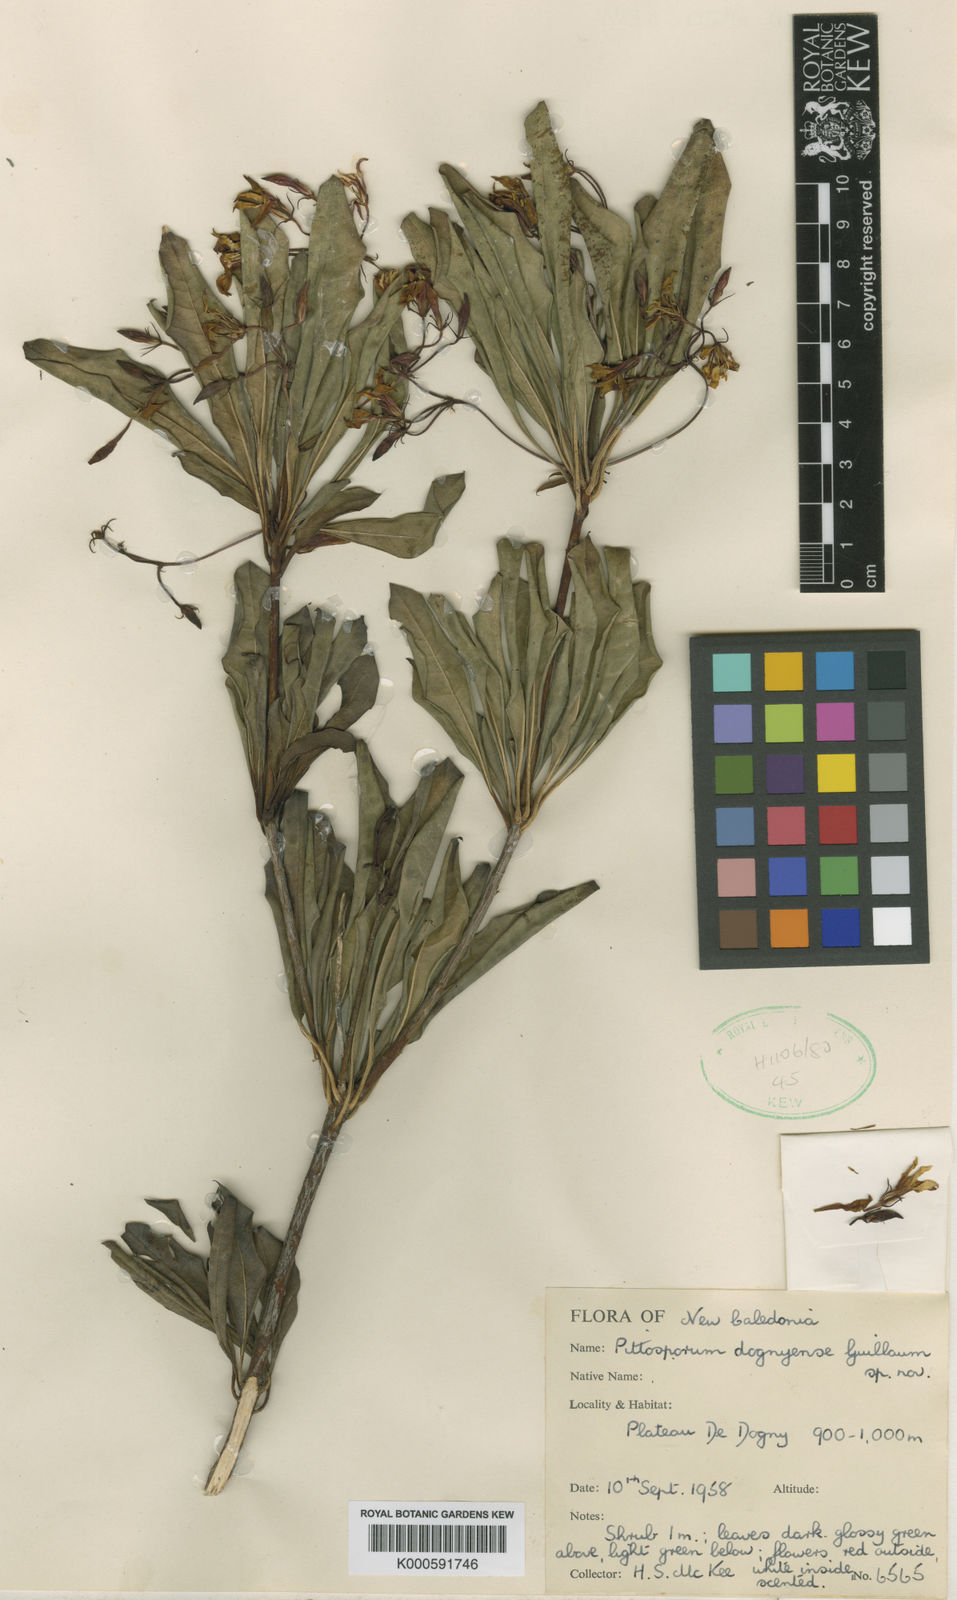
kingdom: Plantae
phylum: Tracheophyta
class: Magnoliopsida
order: Apiales
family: Pittosporaceae
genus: Pittosporum
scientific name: Pittosporum heckelii
